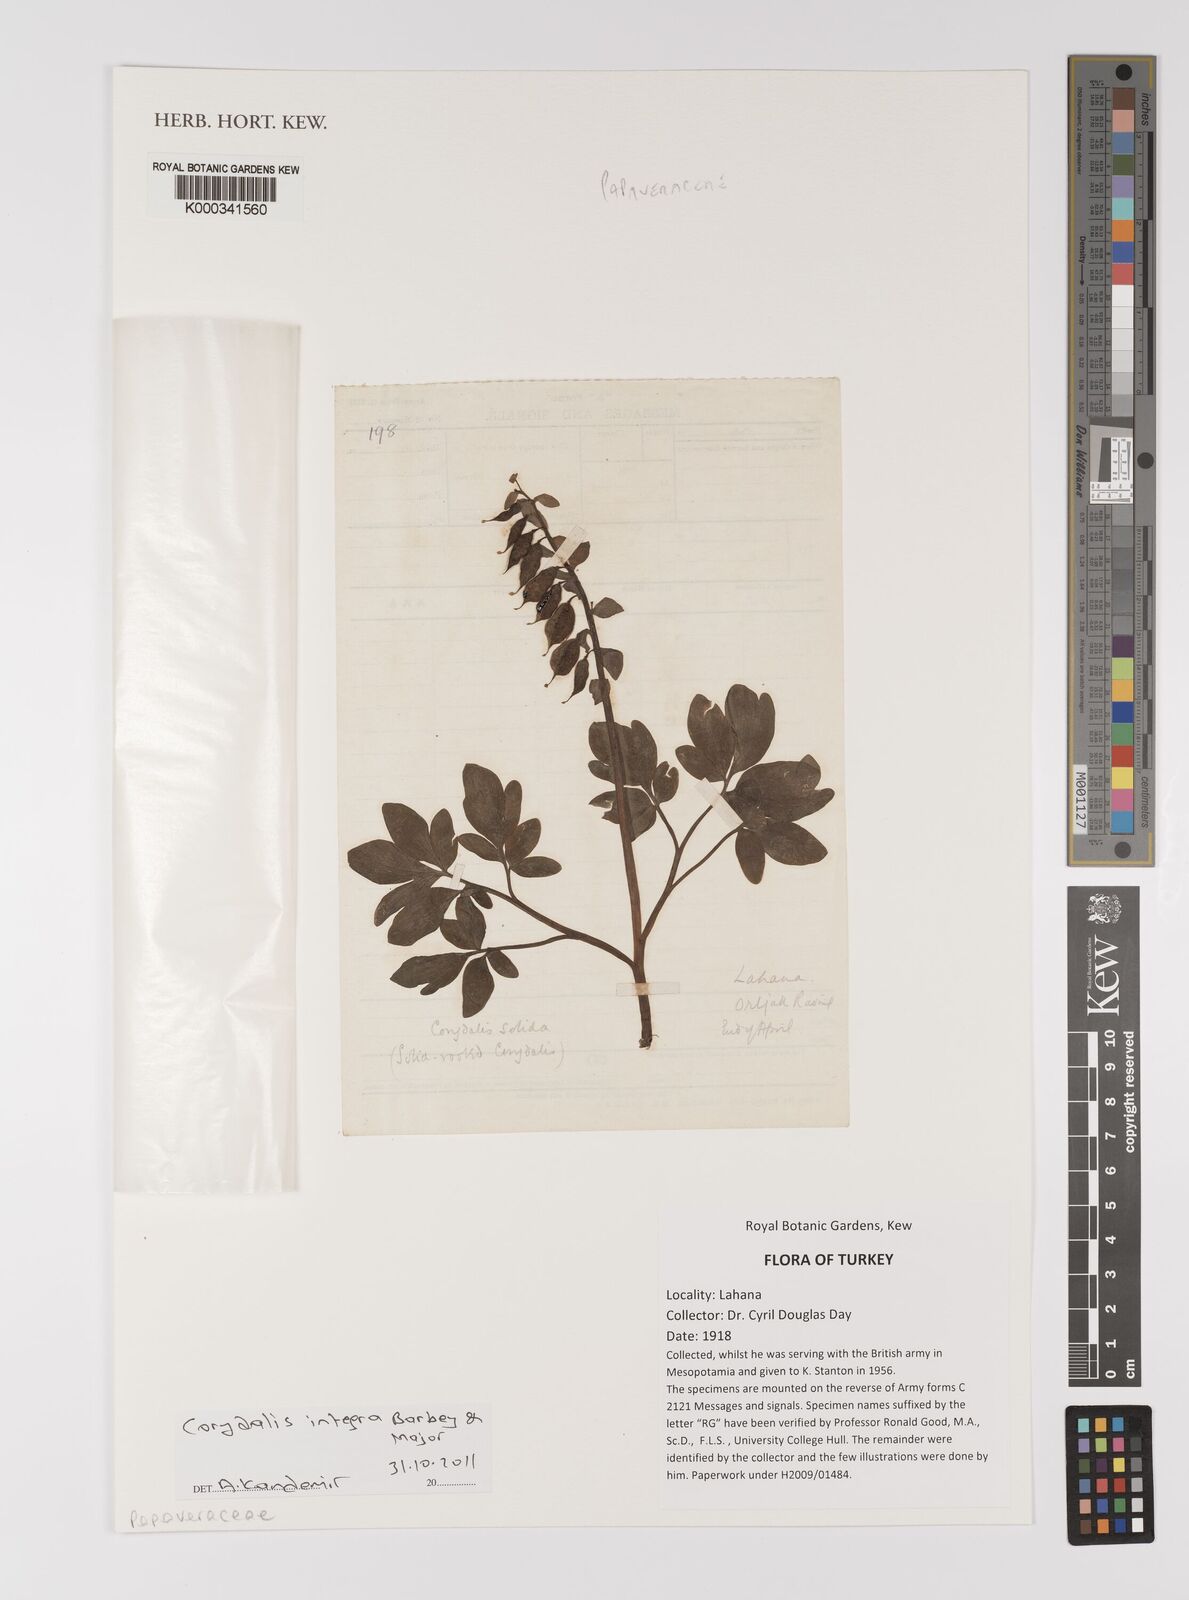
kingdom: Plantae
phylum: Tracheophyta
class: Magnoliopsida
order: Ranunculales
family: Papaveraceae
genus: Corydalis
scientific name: Corydalis integra
